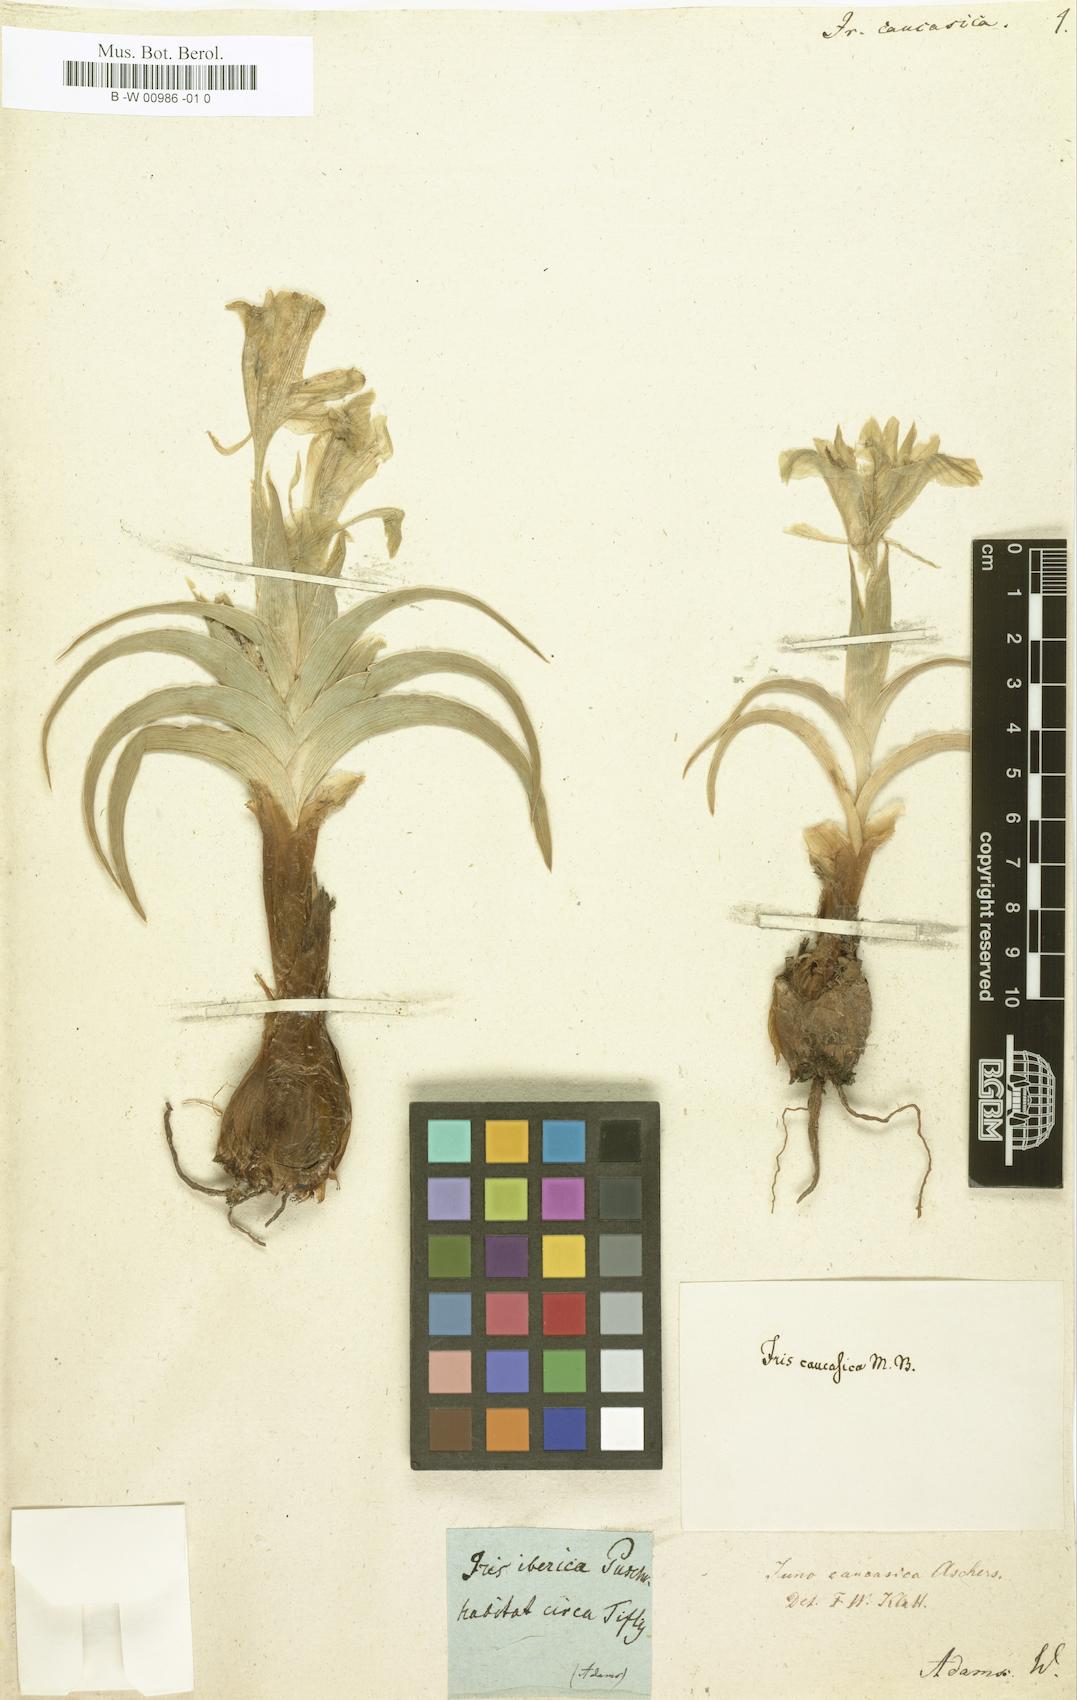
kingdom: Plantae
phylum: Tracheophyta
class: Liliopsida
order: Asparagales
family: Iridaceae
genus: Iris
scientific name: Iris caucasica
